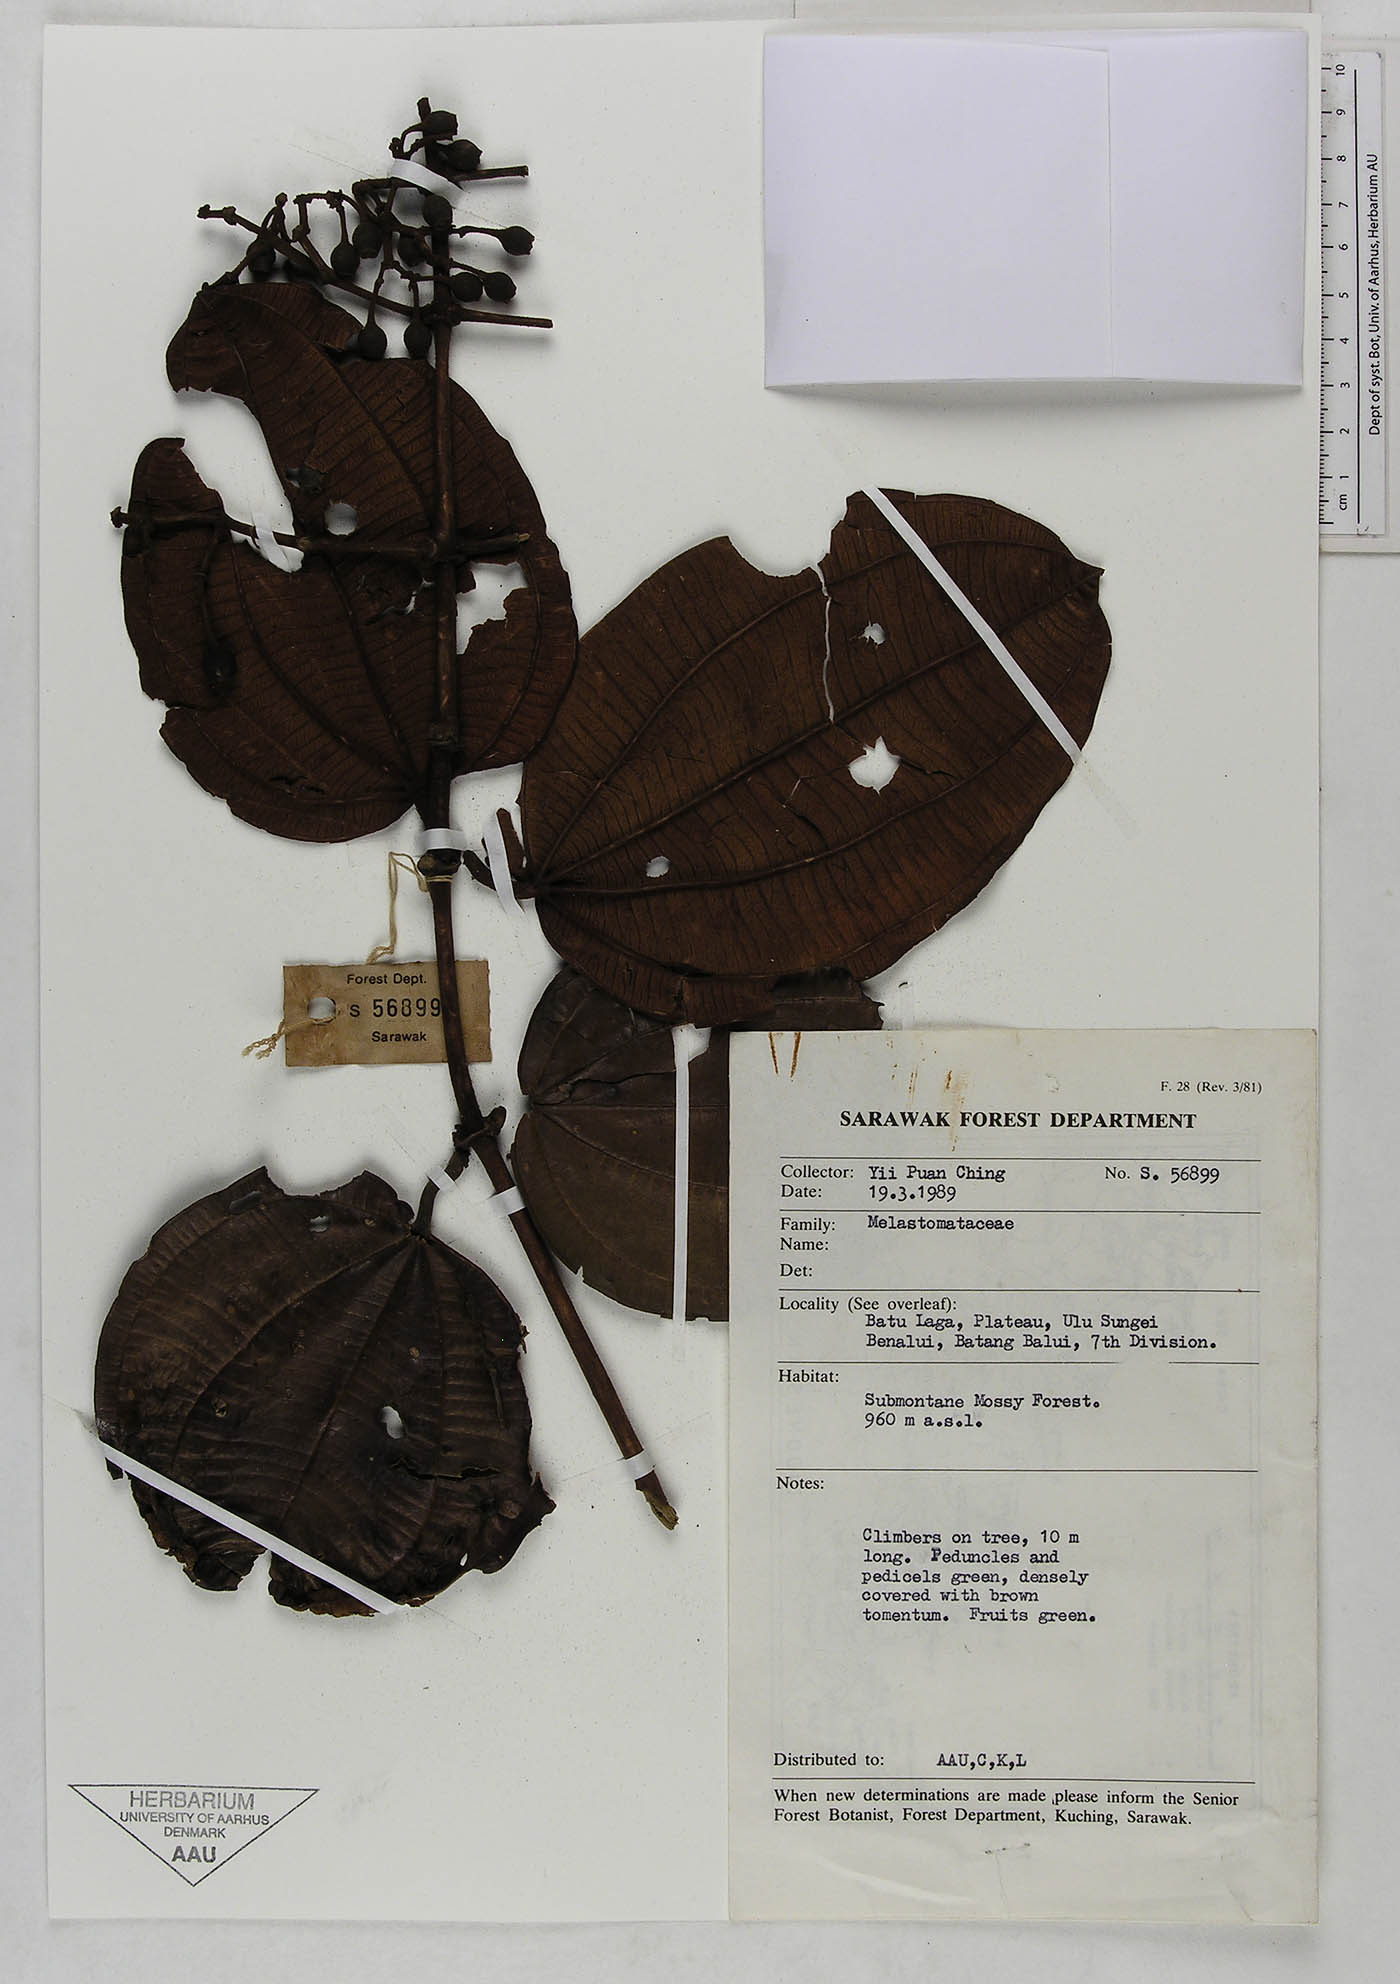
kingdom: Plantae
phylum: Tracheophyta
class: Magnoliopsida
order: Myrtales
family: Melastomataceae
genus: Diplectria
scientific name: Diplectria
